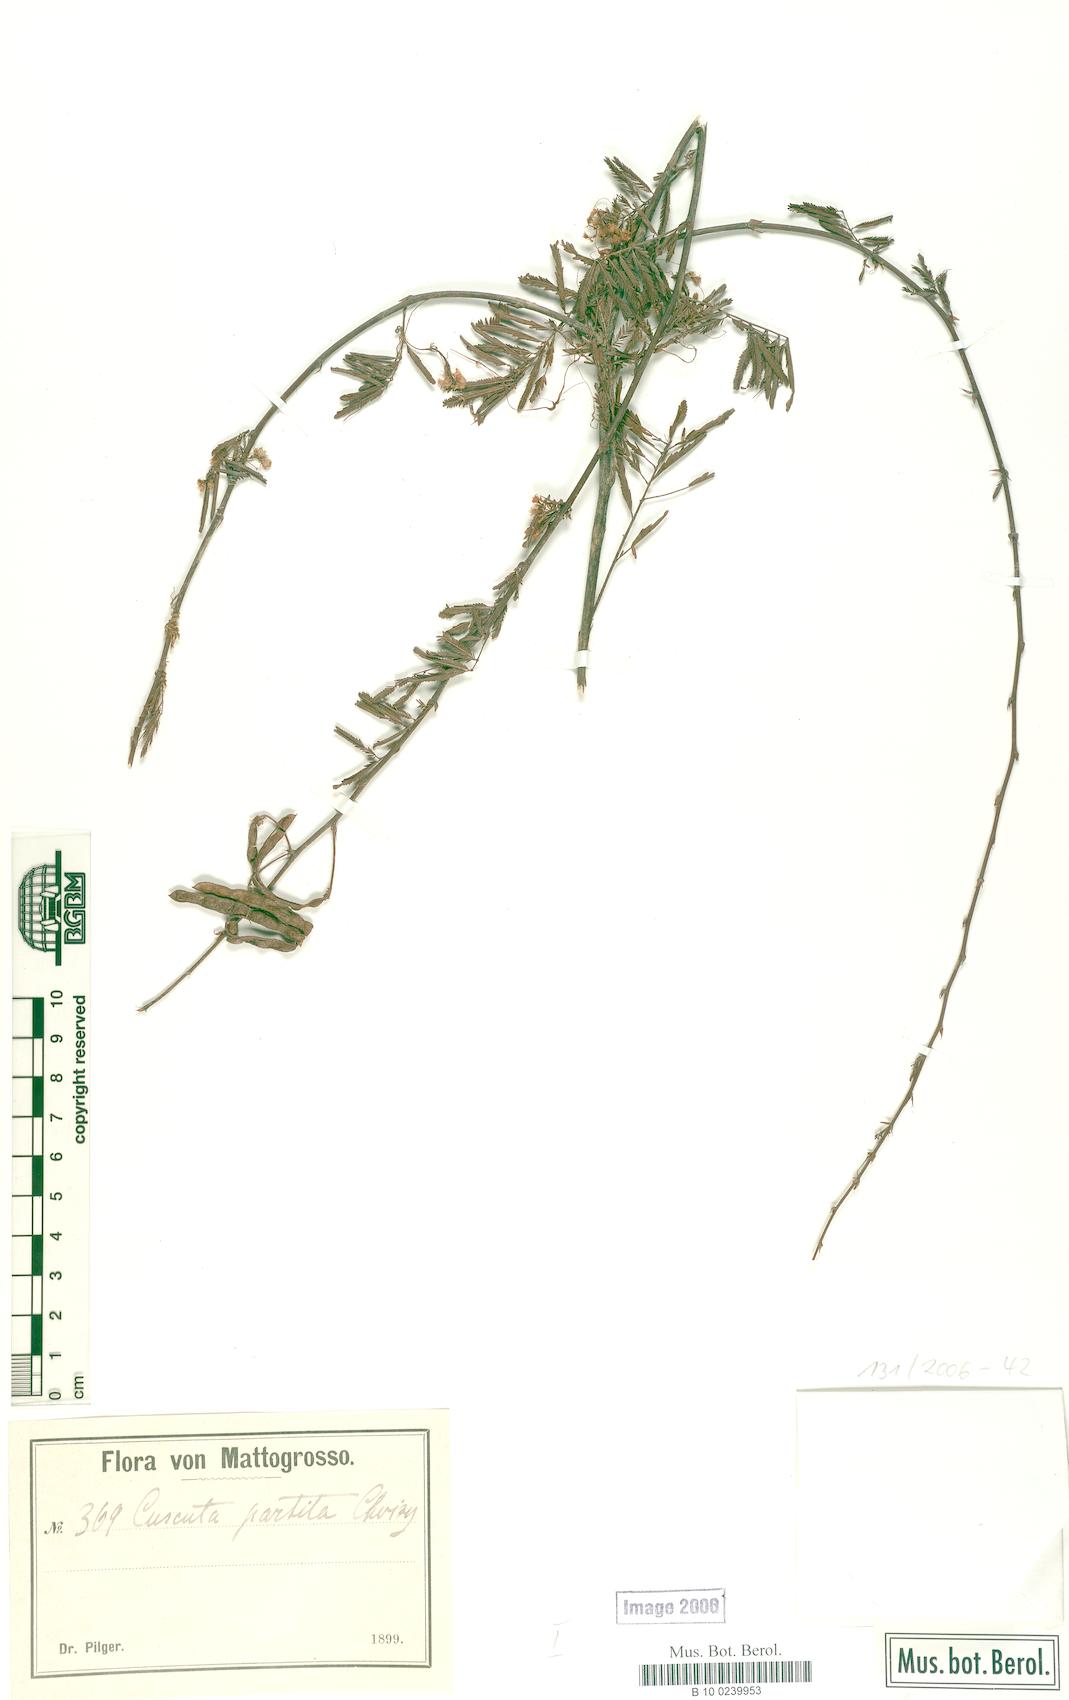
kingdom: Plantae
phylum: Tracheophyta
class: Magnoliopsida
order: Solanales
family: Convolvulaceae
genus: Cuscuta
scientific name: Cuscuta partita
